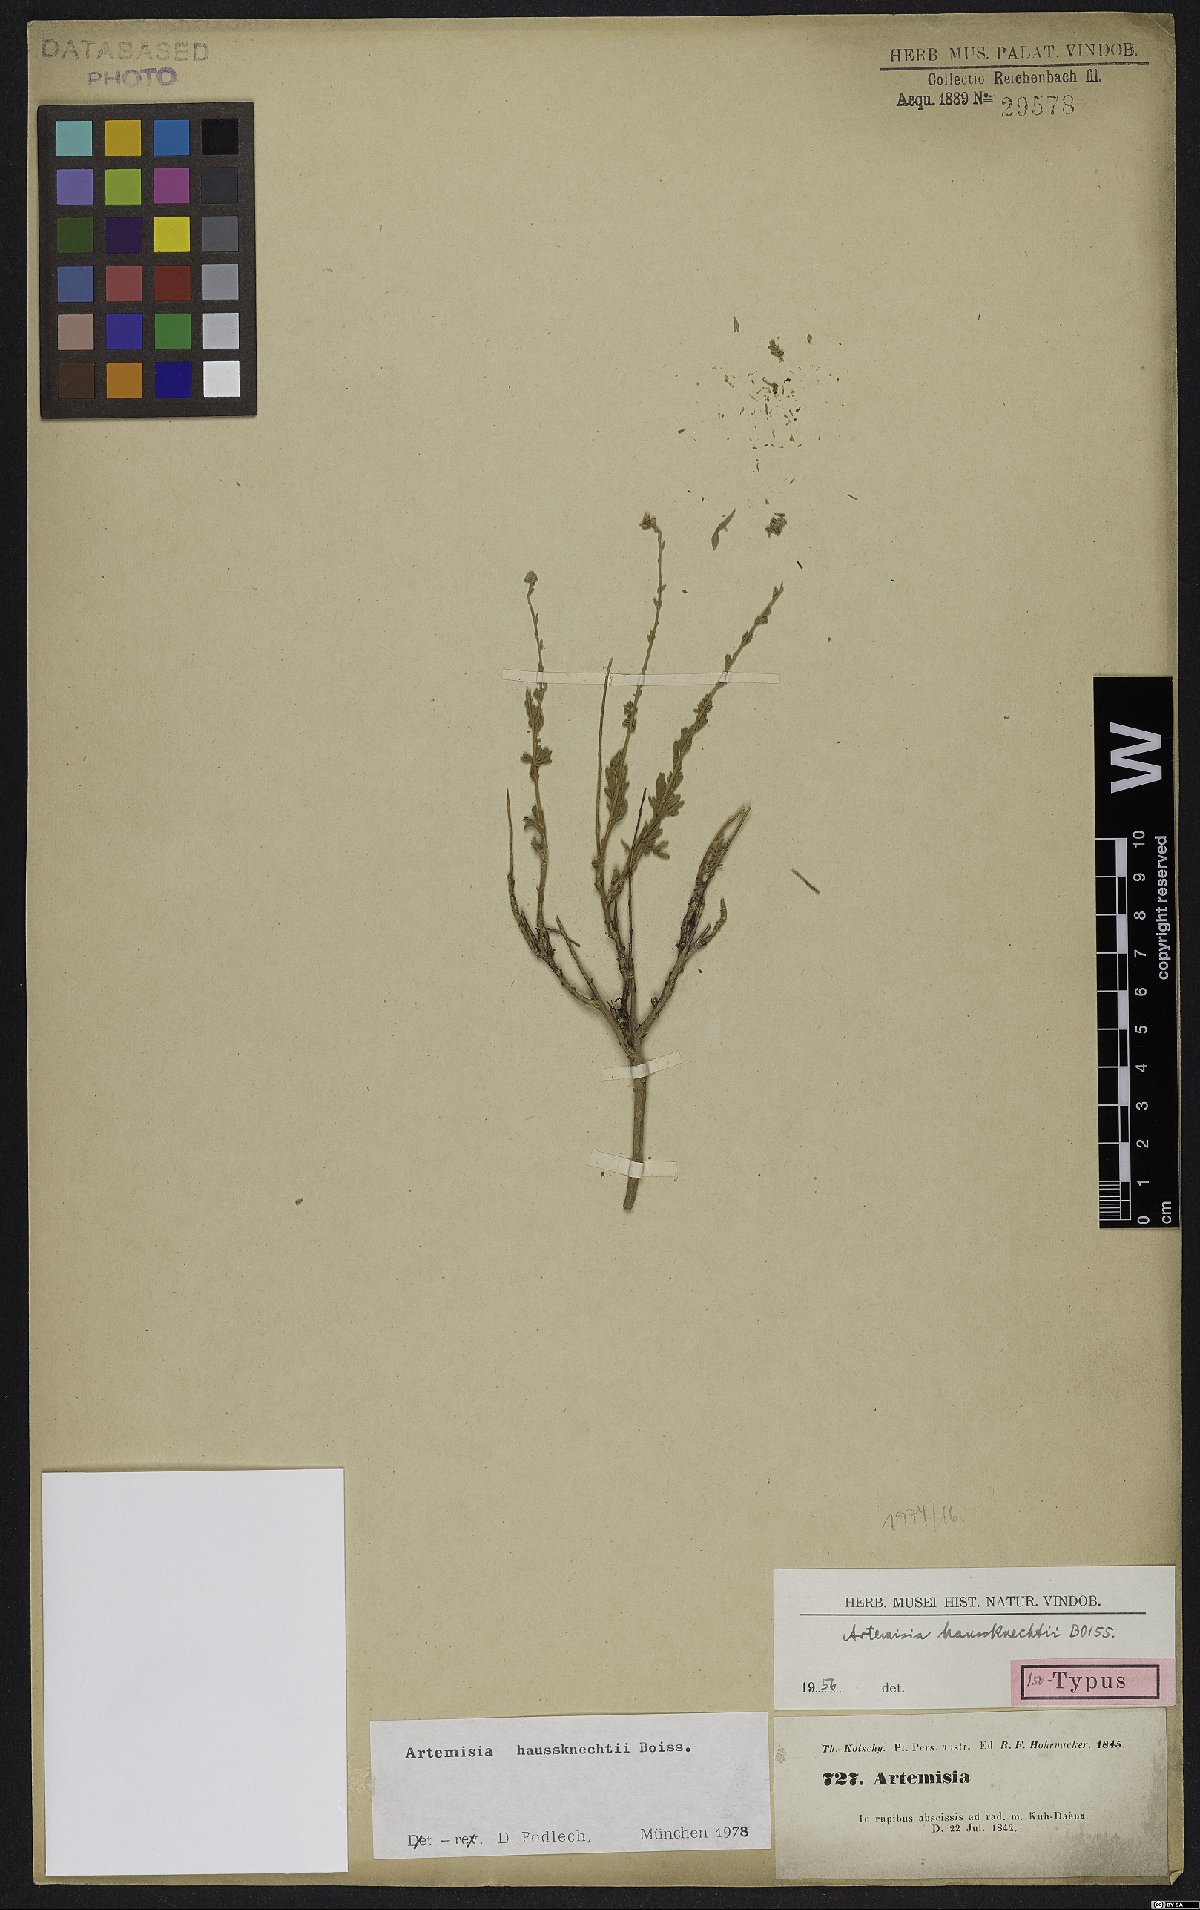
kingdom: Plantae
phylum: Tracheophyta
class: Magnoliopsida
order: Asterales
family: Asteraceae
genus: Artemisia
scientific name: Artemisia haussknechtii
